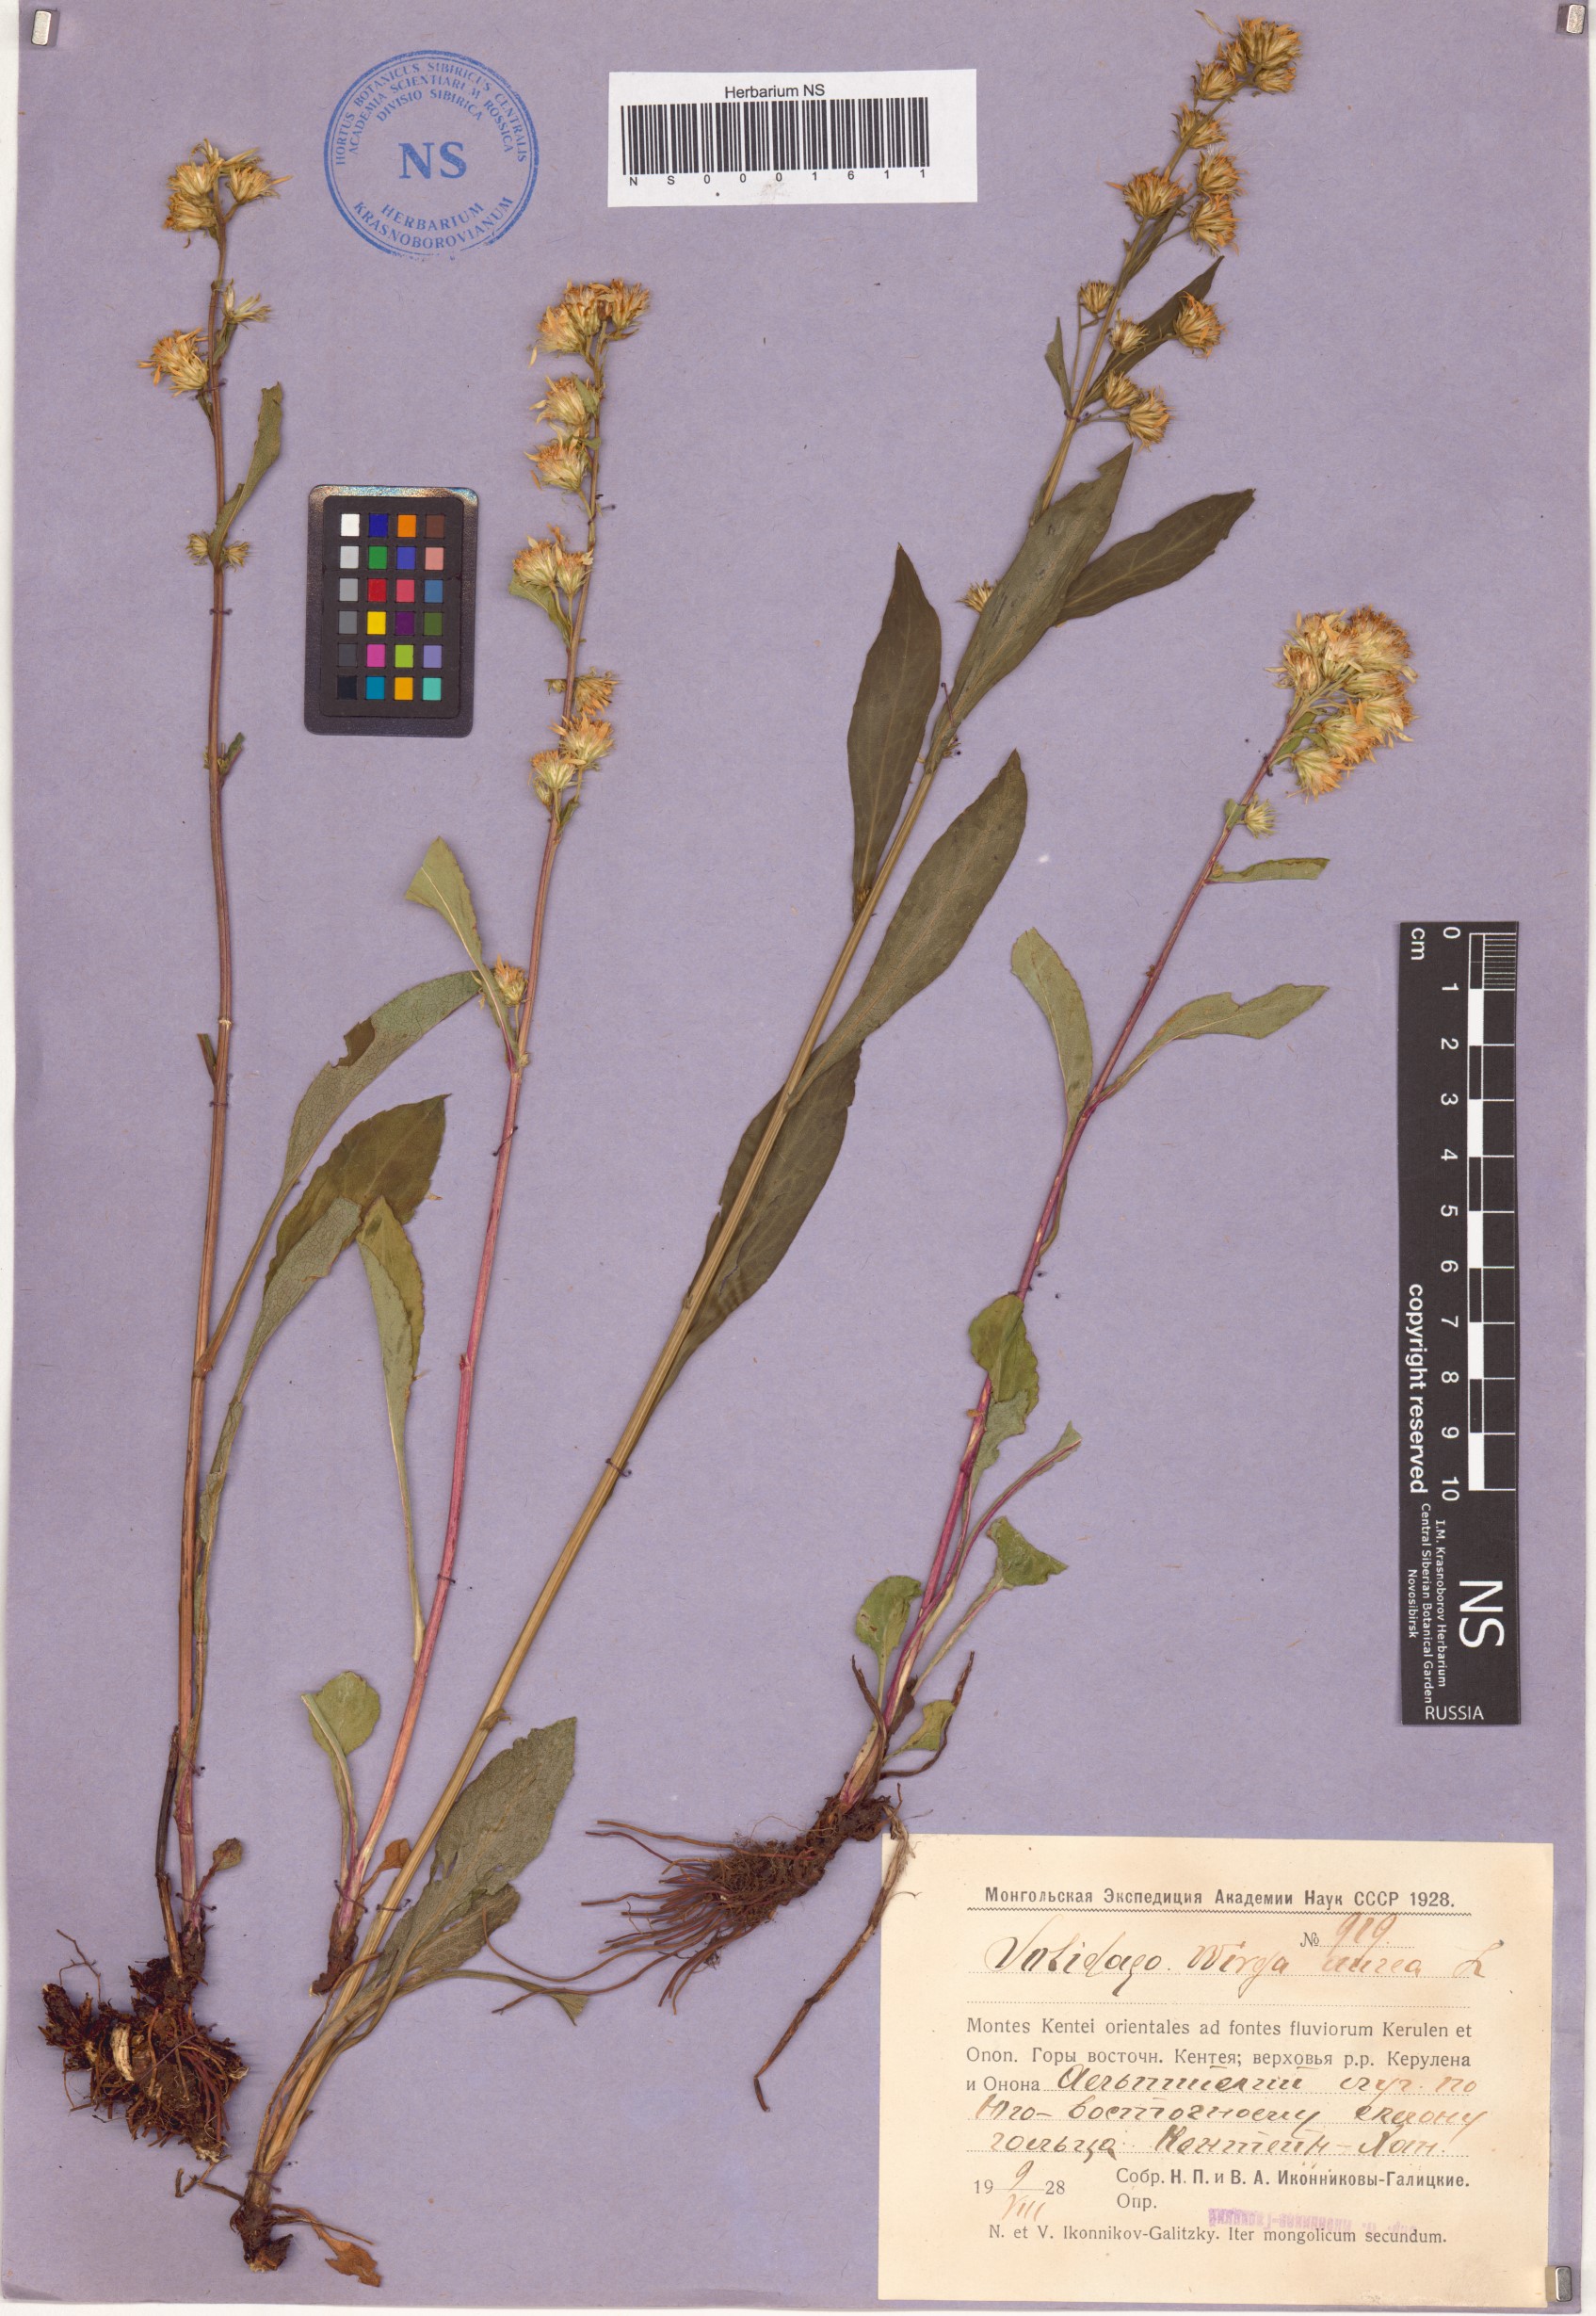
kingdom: Plantae
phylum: Tracheophyta
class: Magnoliopsida
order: Asterales
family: Asteraceae
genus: Solidago
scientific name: Solidago virgaurea
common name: Goldenrod
